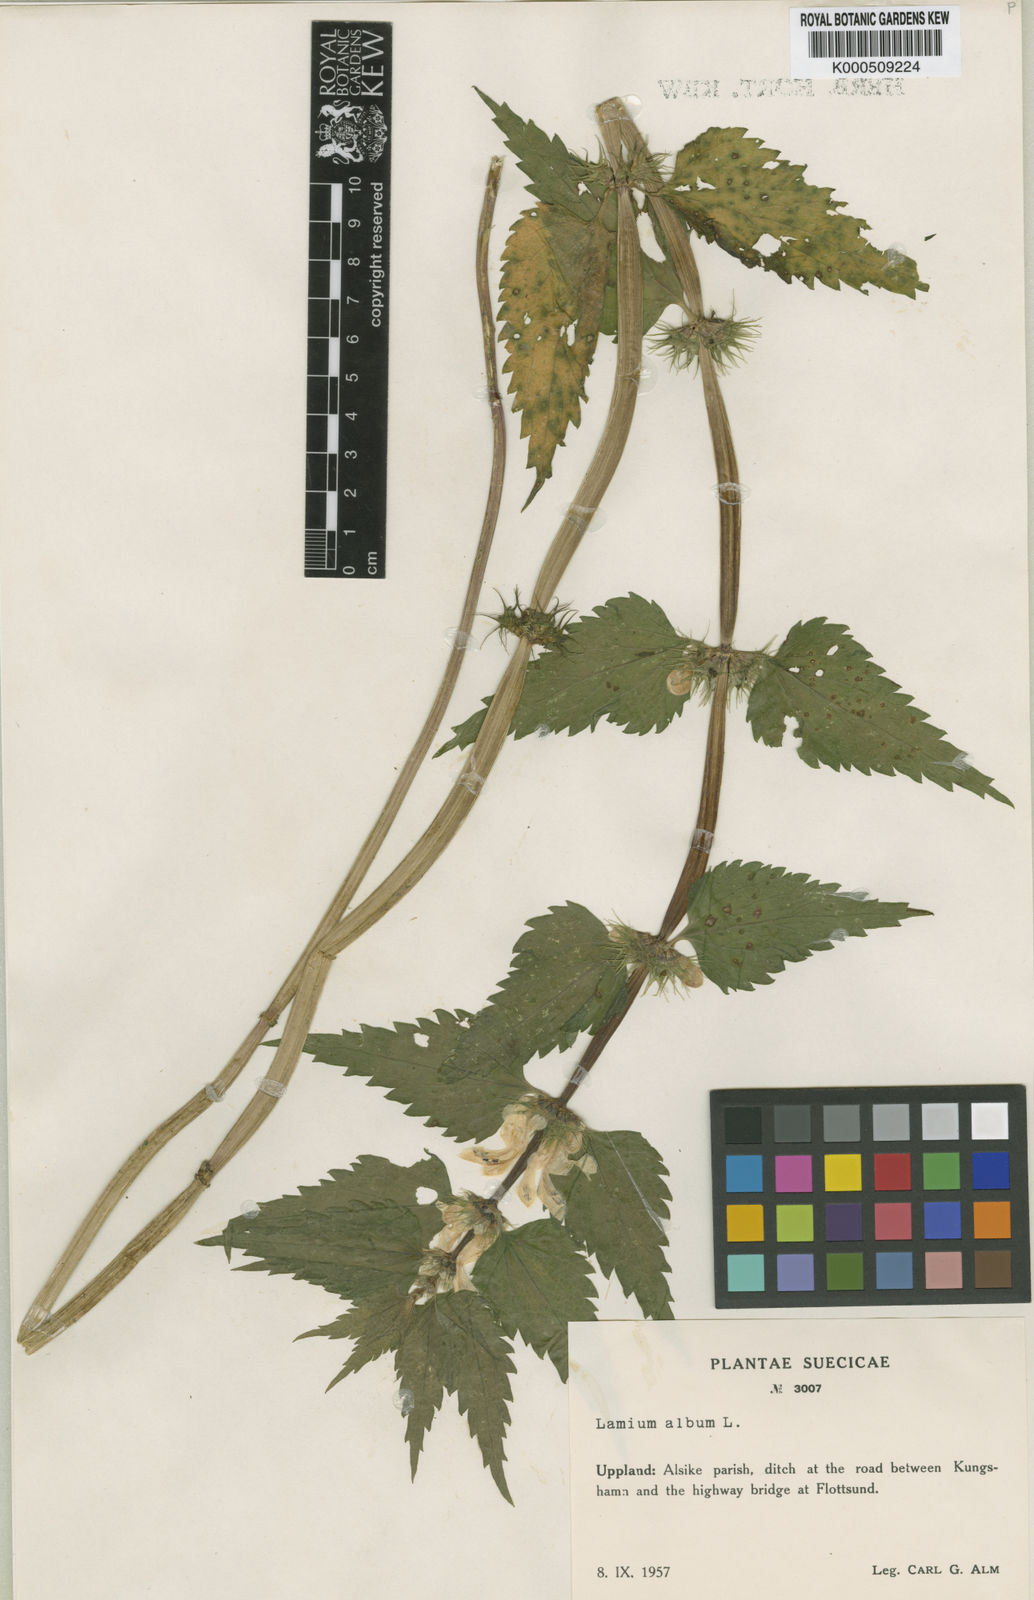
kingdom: Plantae
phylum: Tracheophyta
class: Magnoliopsida
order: Lamiales
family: Lamiaceae
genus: Lamium
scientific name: Lamium album
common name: White dead-nettle
